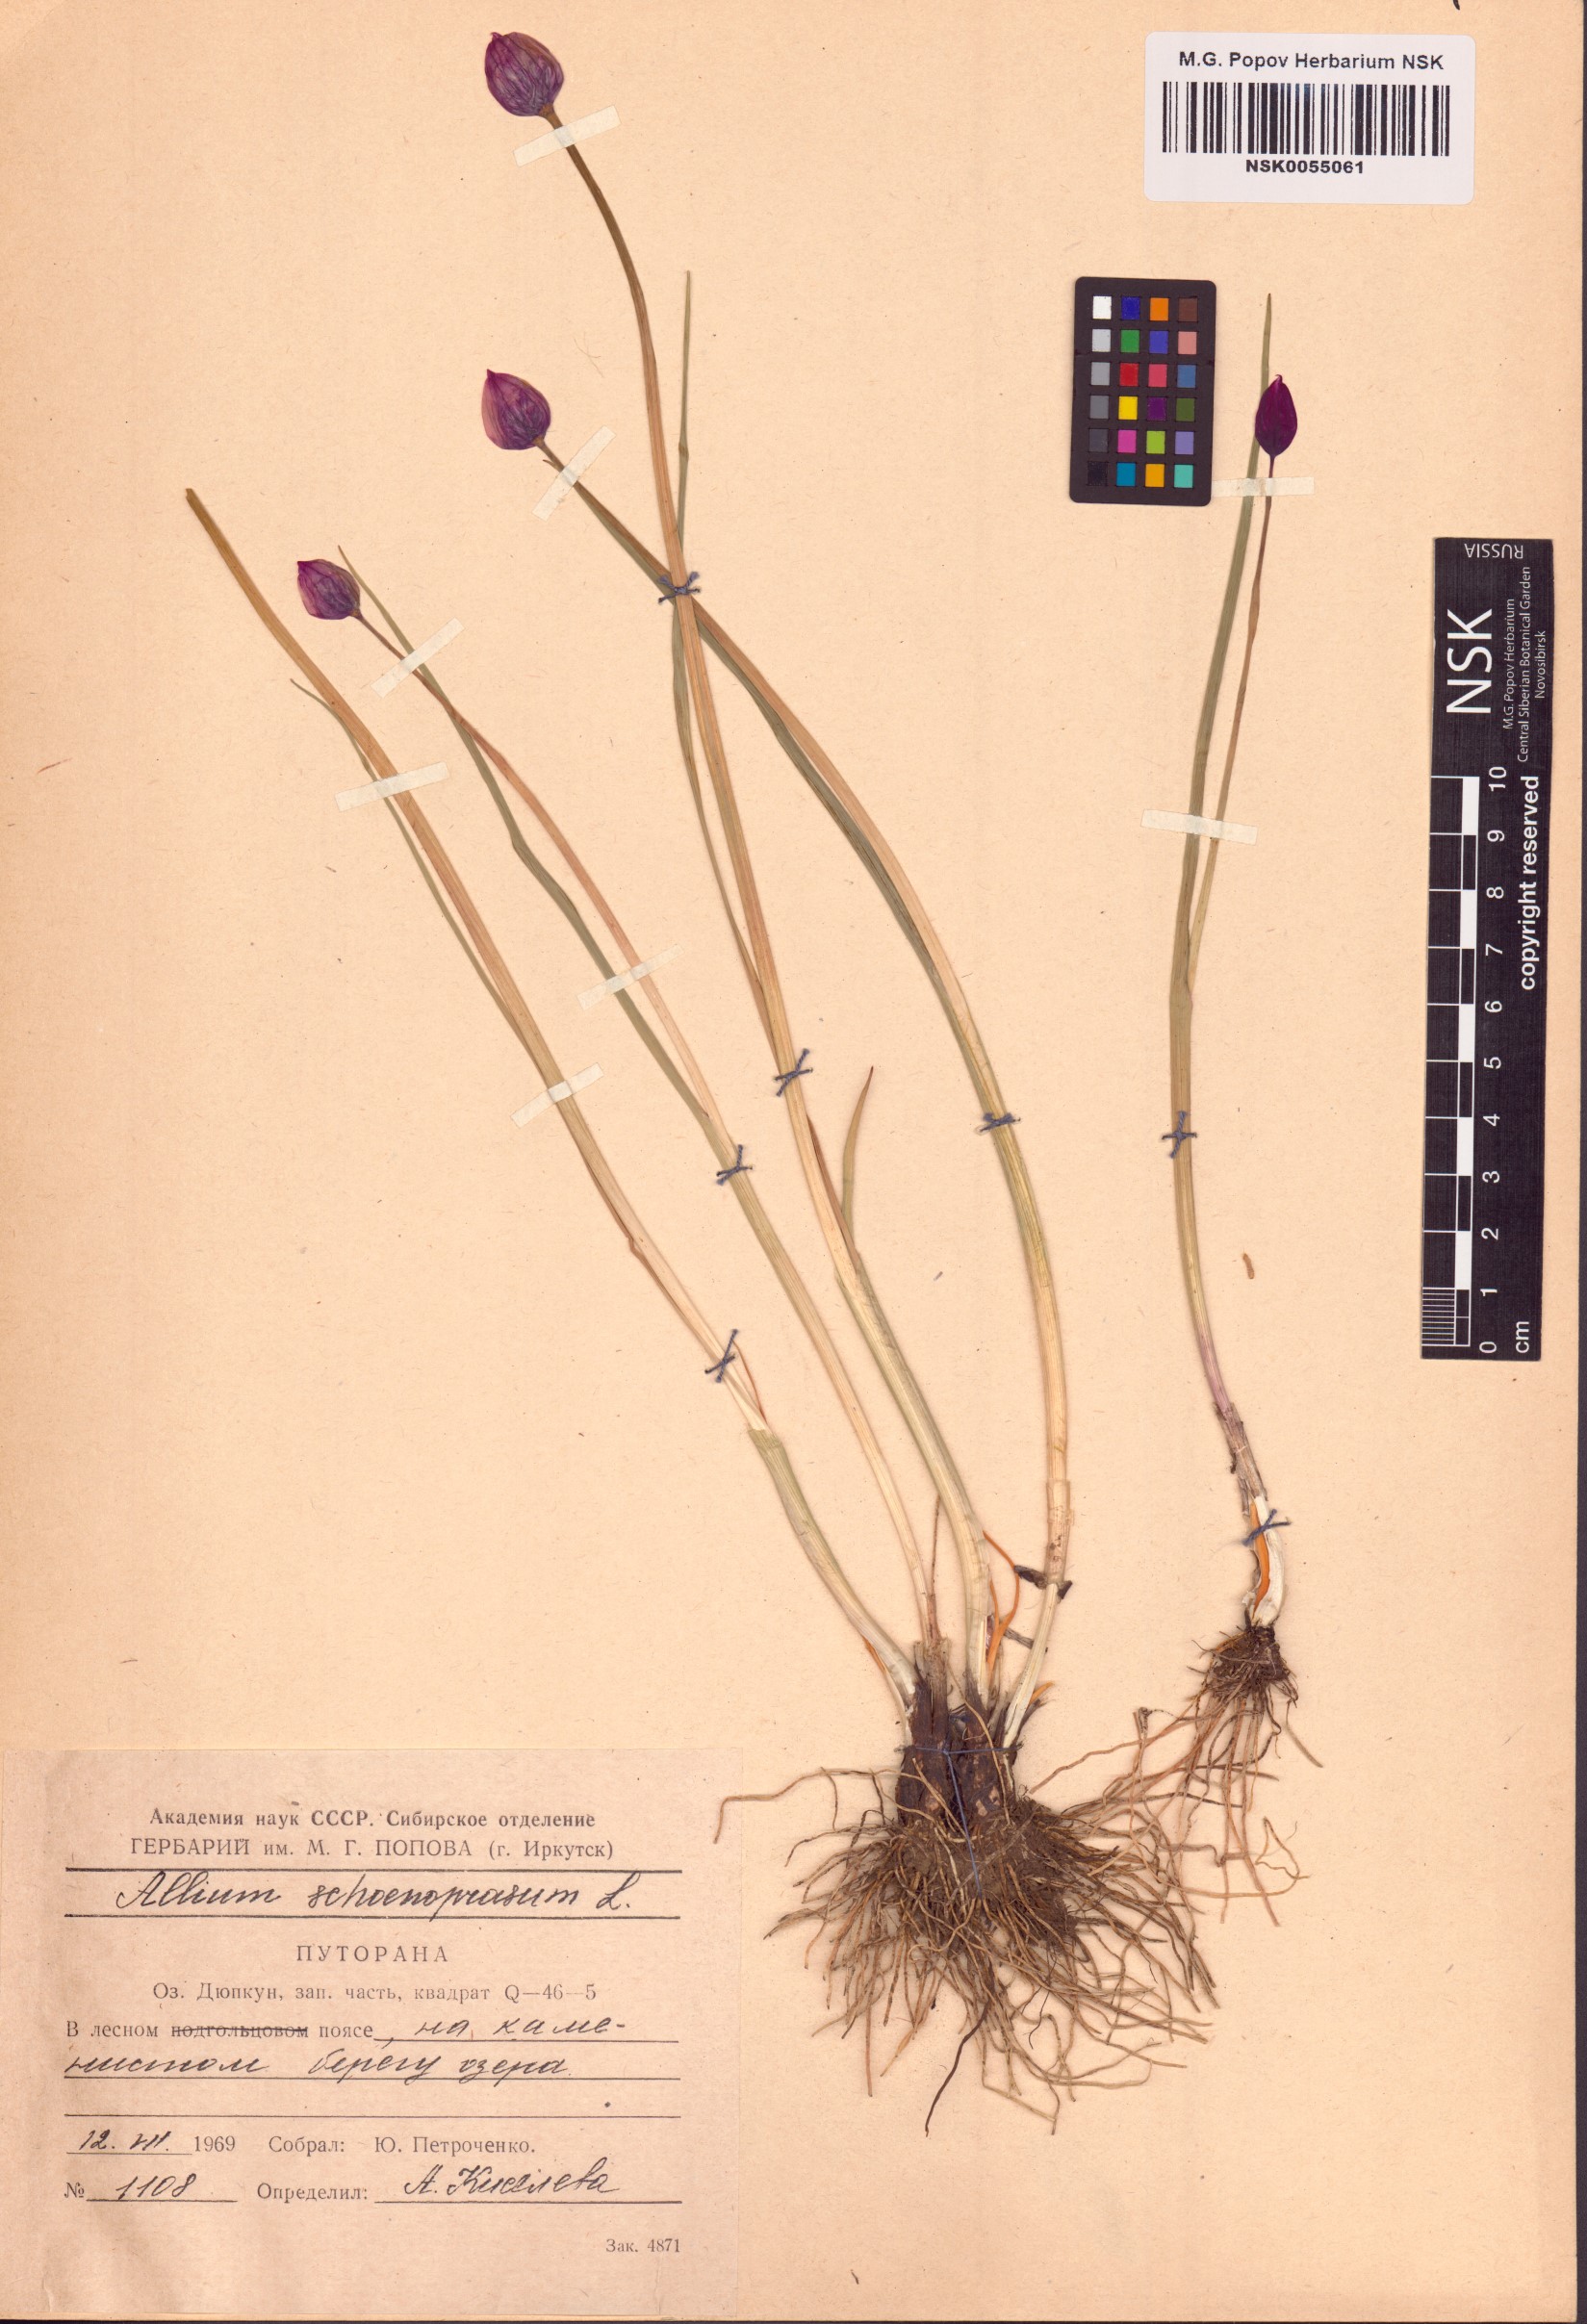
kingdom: Plantae
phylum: Tracheophyta
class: Liliopsida
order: Asparagales
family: Amaryllidaceae
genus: Allium
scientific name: Allium schoenoprasum
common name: Chives
